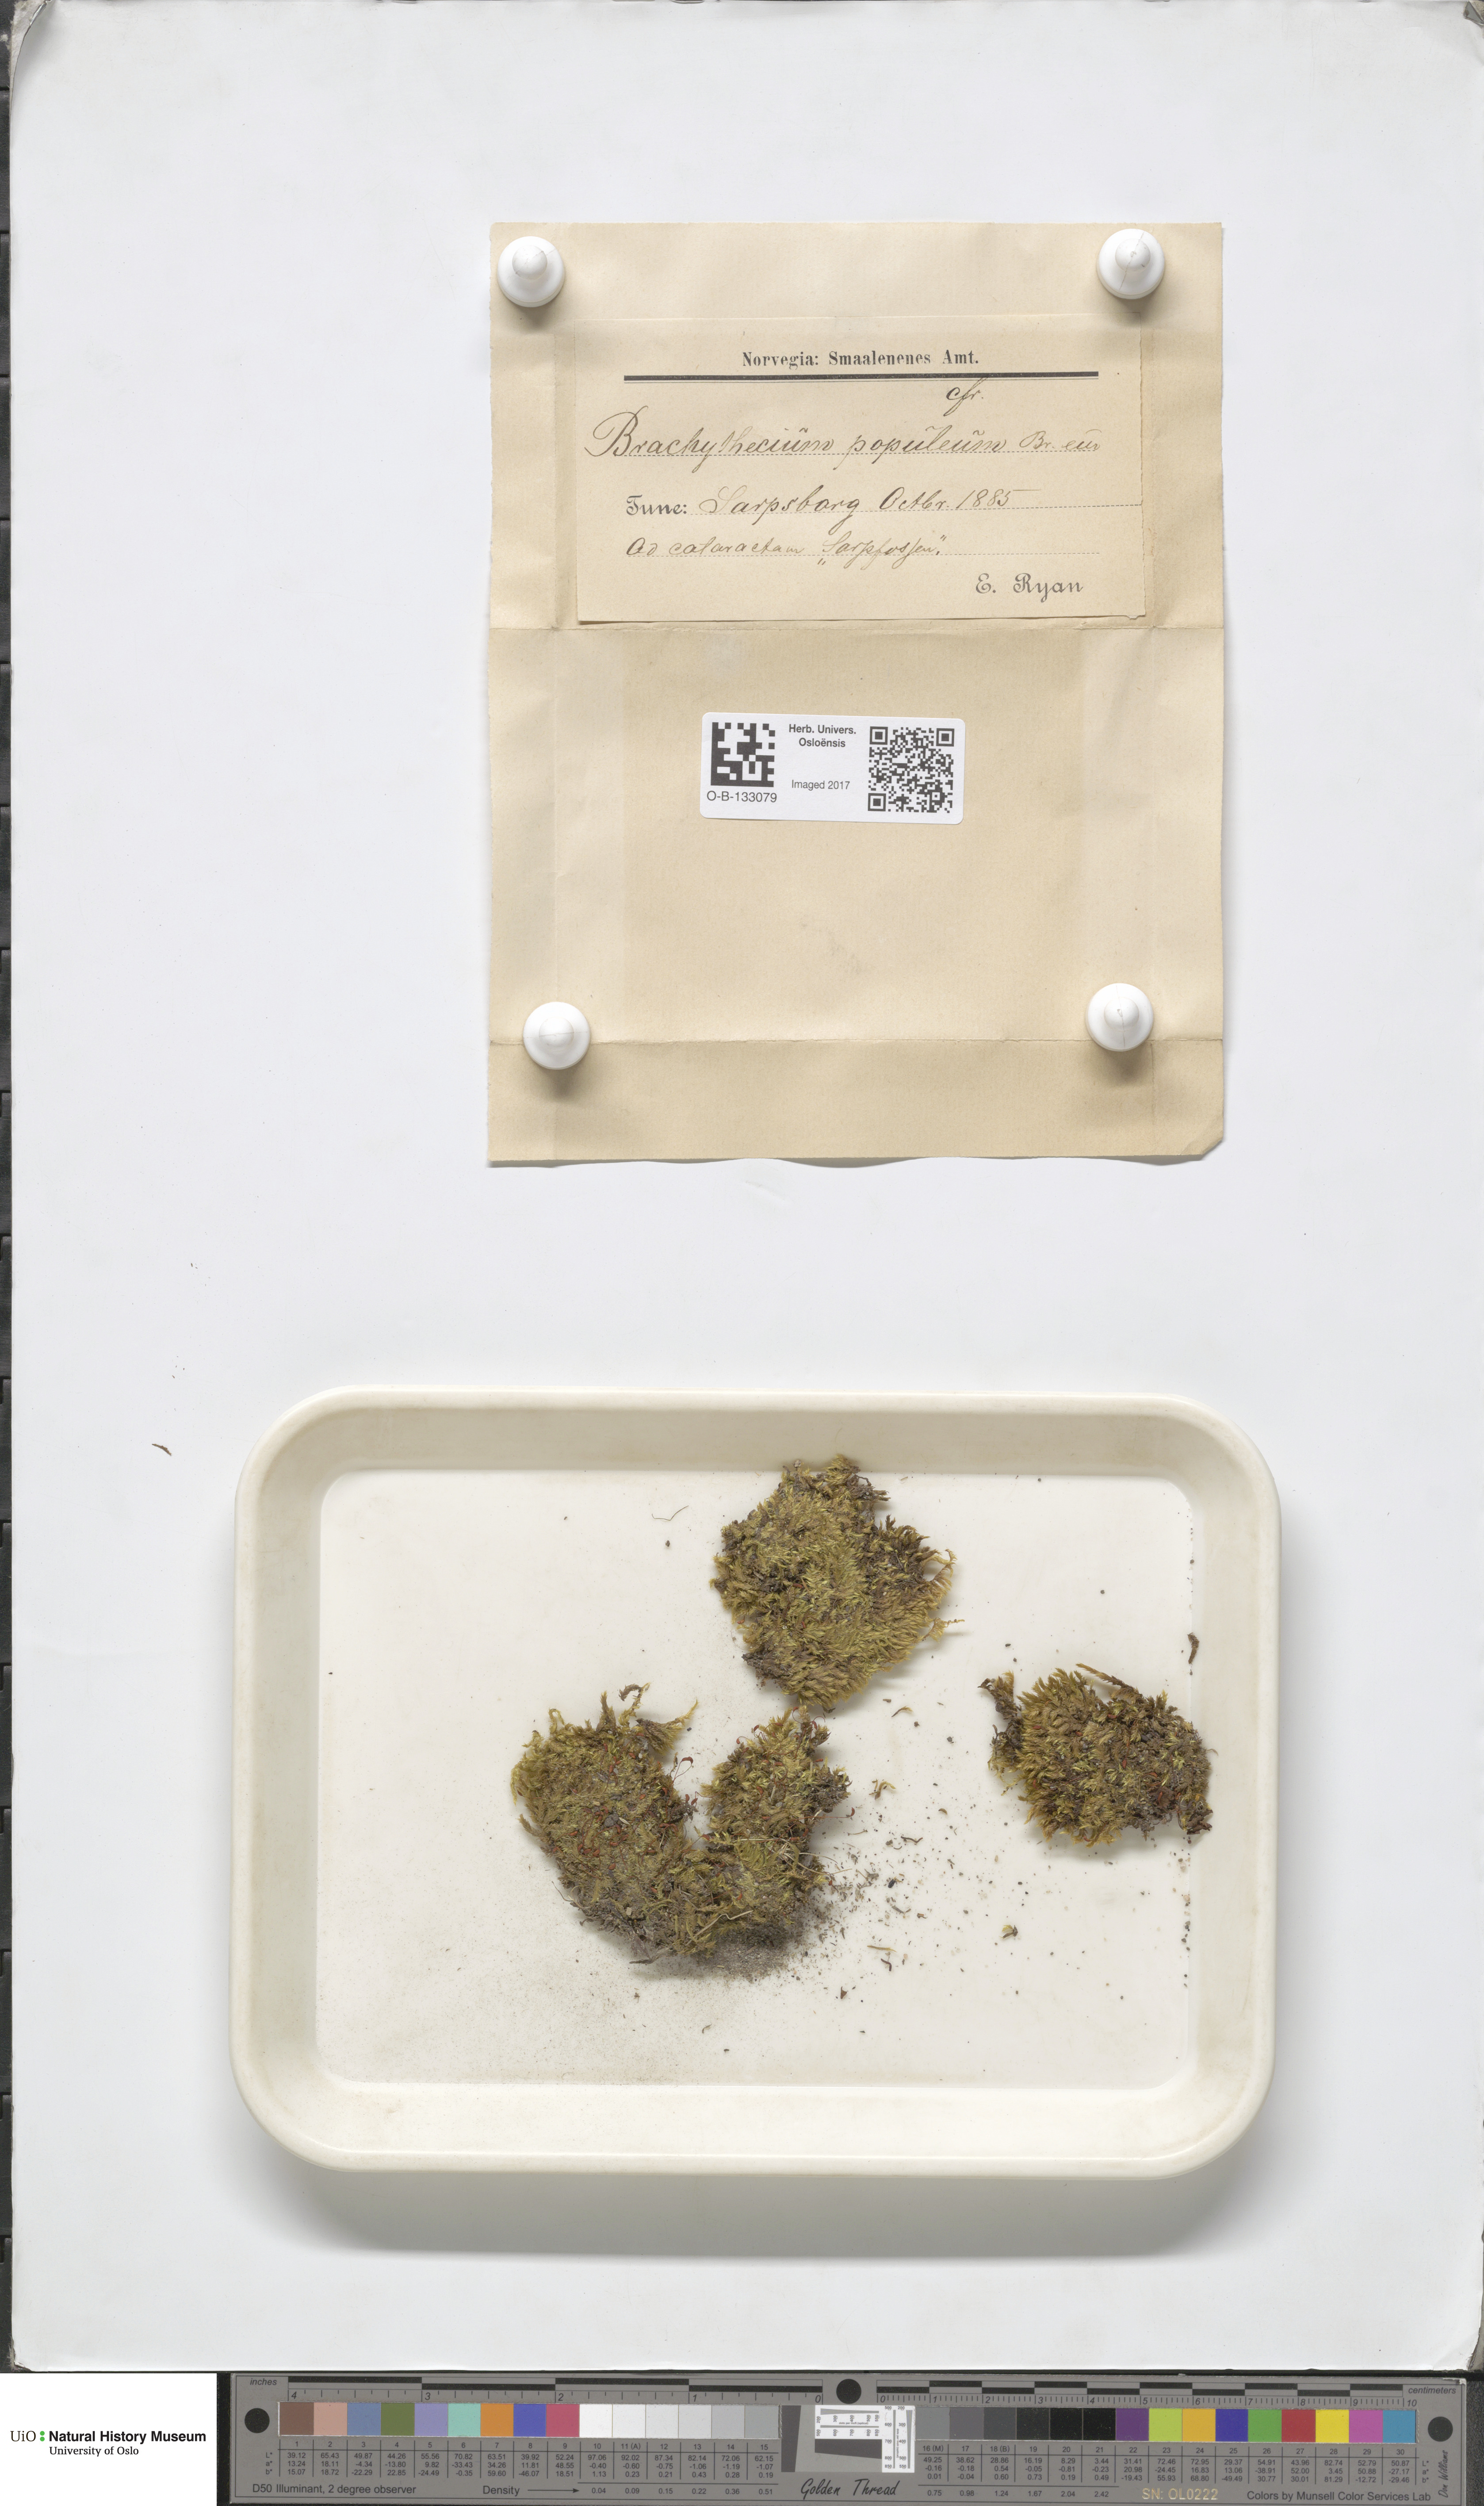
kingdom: Plantae
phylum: Bryophyta
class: Bryopsida
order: Hypnales
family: Brachytheciaceae
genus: Sciuro-hypnum
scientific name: Sciuro-hypnum plumosum
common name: Rusty feather-moss
